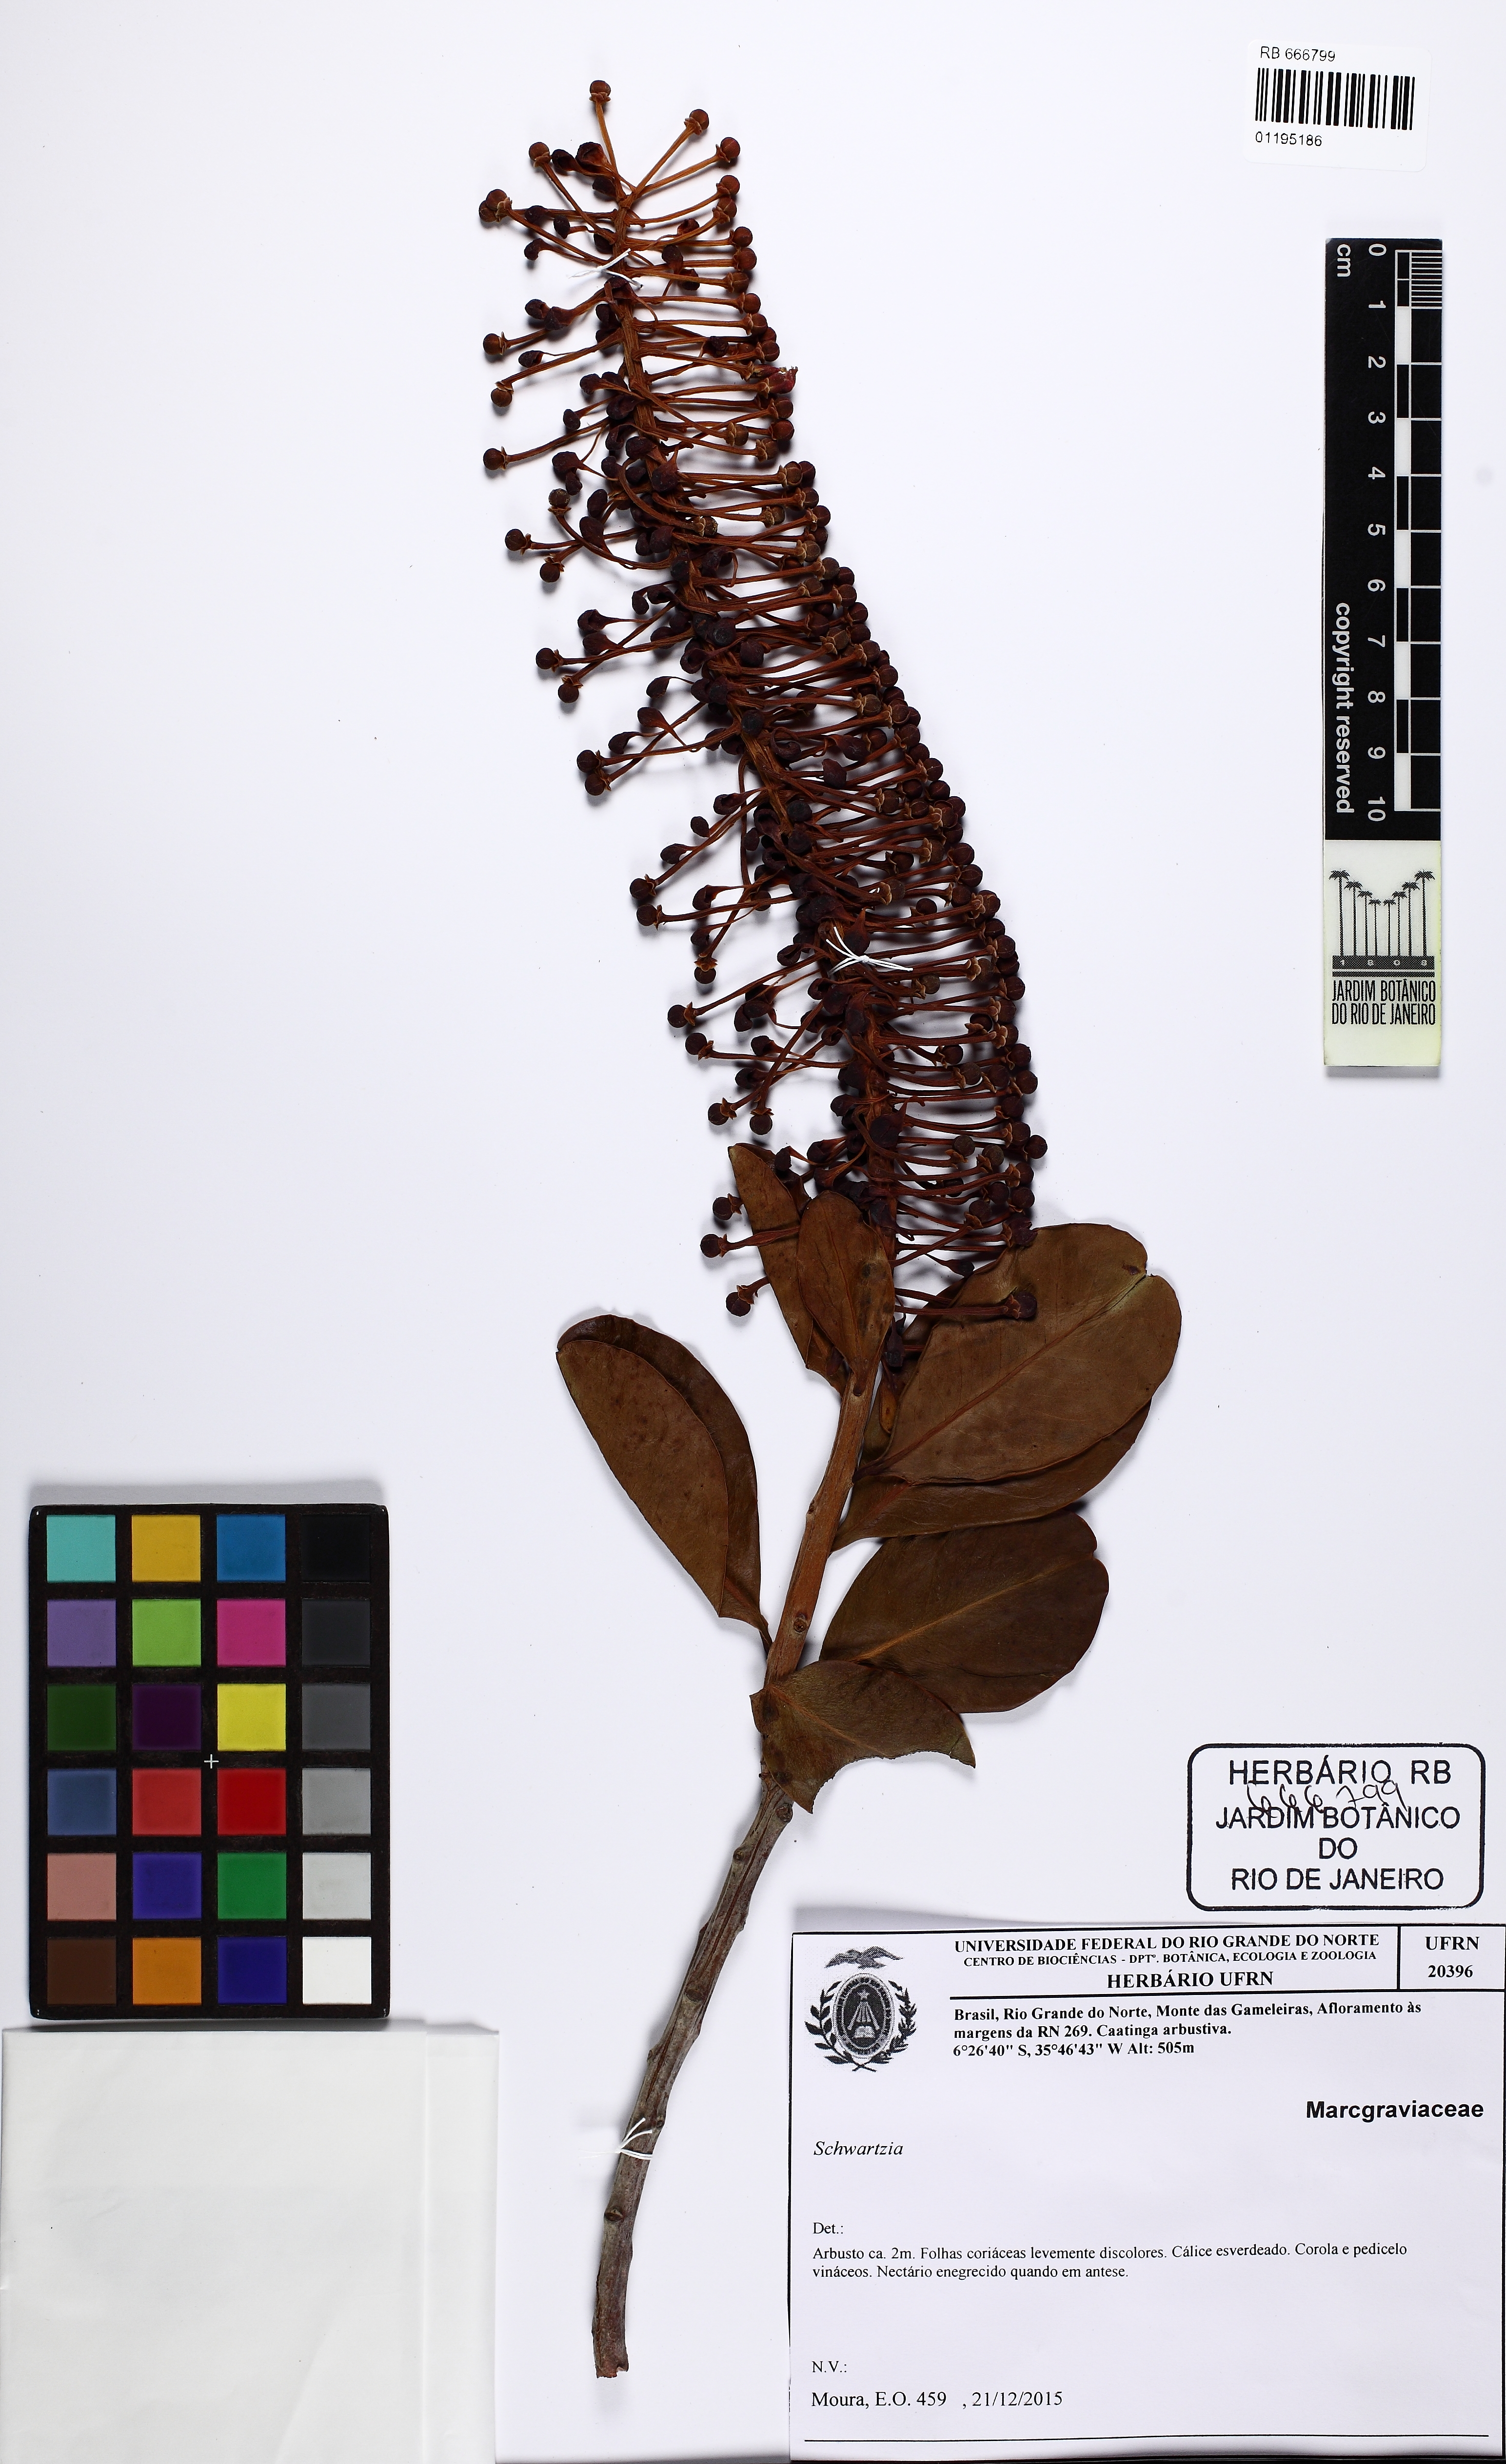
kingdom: Plantae
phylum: Tracheophyta
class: Magnoliopsida
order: Ericales
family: Marcgraviaceae
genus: Schwartzia
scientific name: Schwartzia
